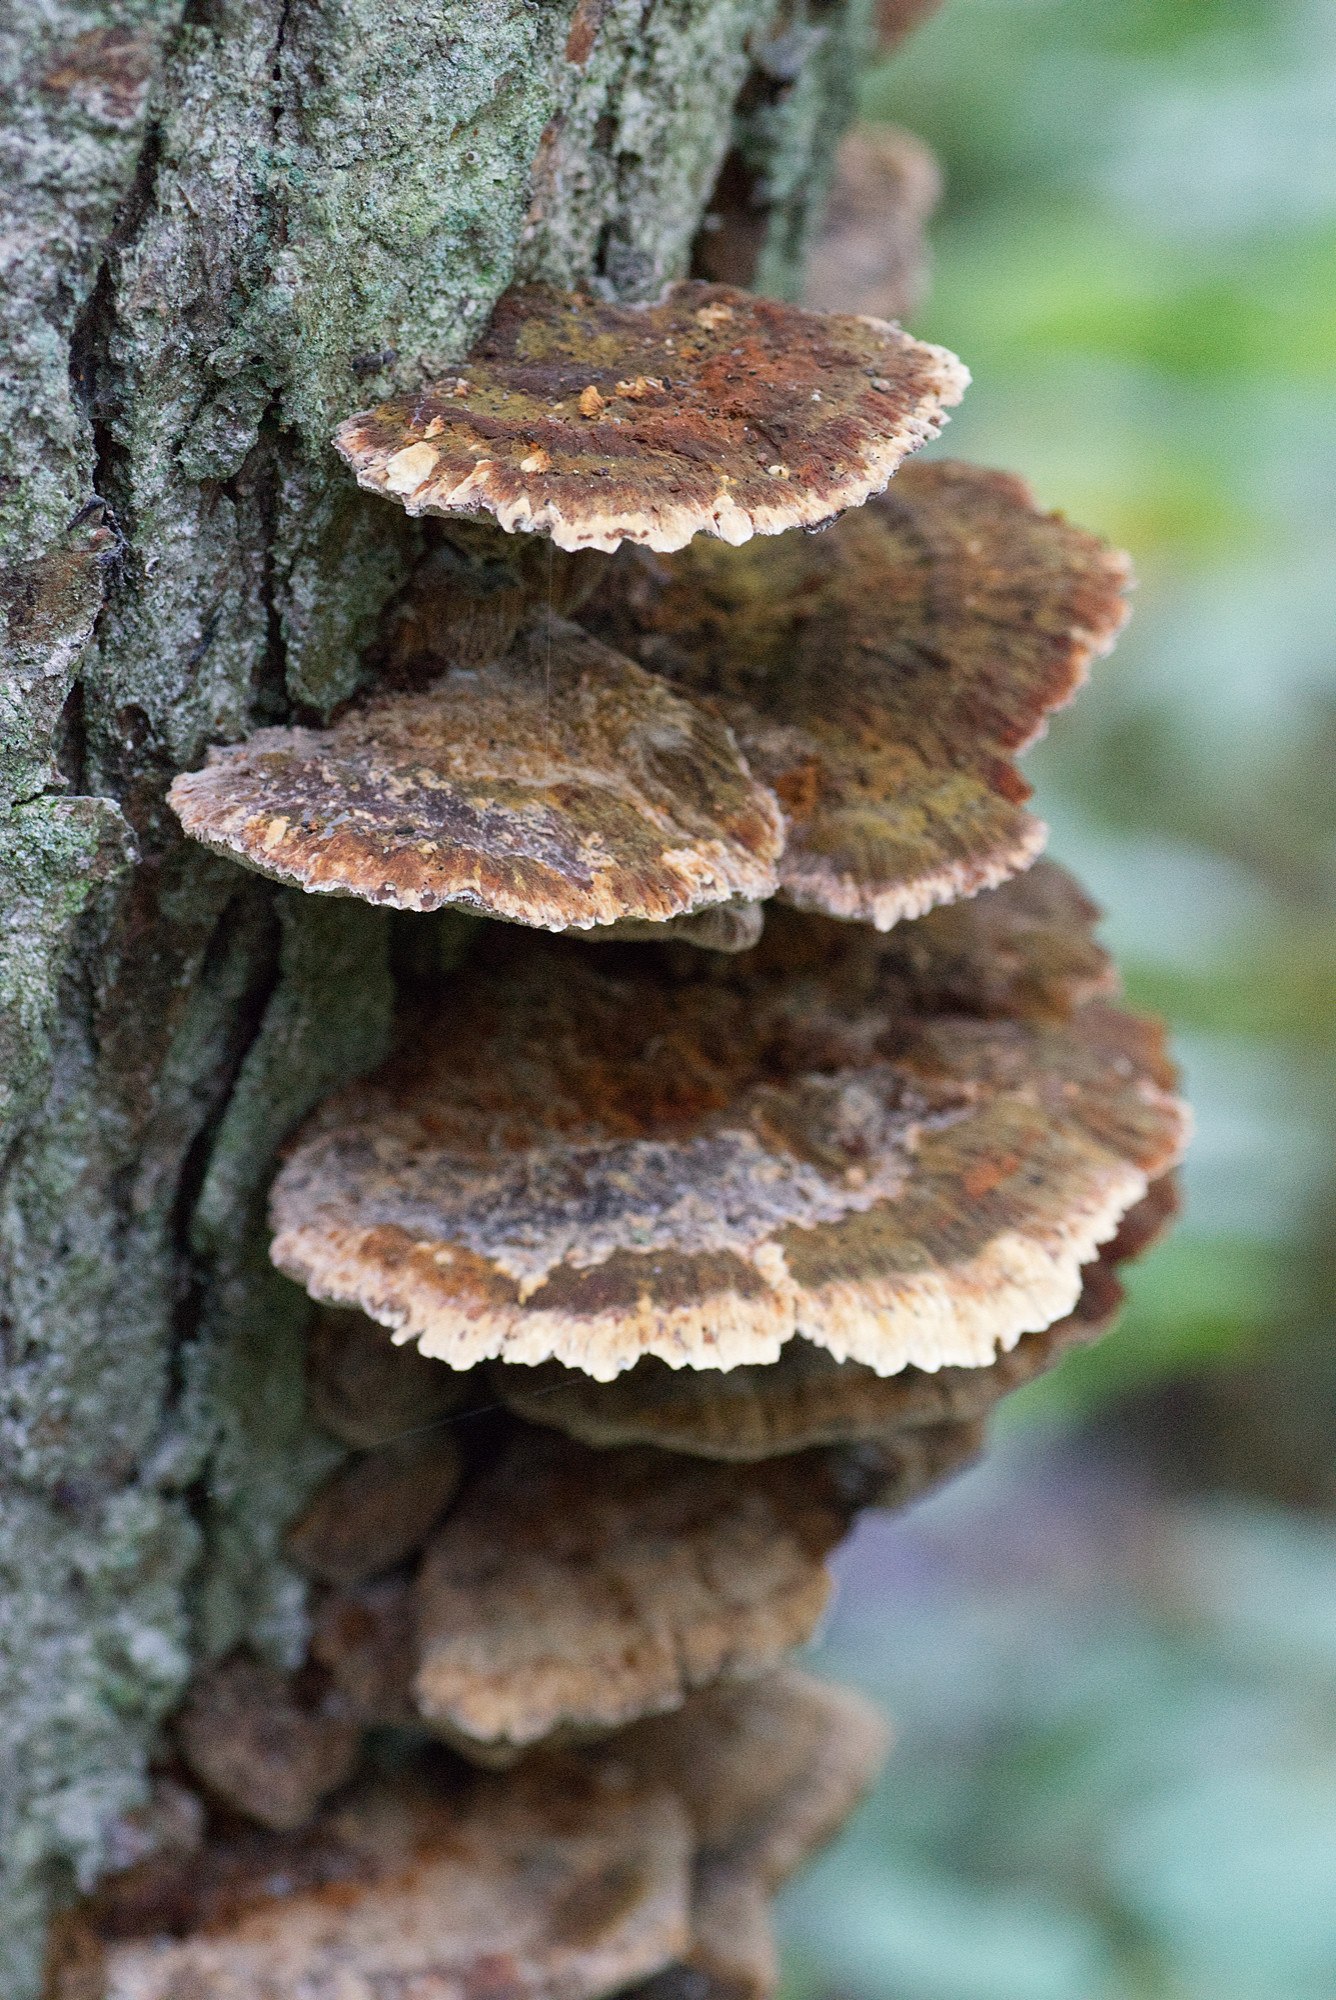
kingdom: Fungi
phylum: Basidiomycota
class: Agaricomycetes
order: Hymenochaetales
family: Hymenochaetaceae
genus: Xanthoporia
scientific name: Xanthoporia radiata
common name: elle-spejlporesvamp
